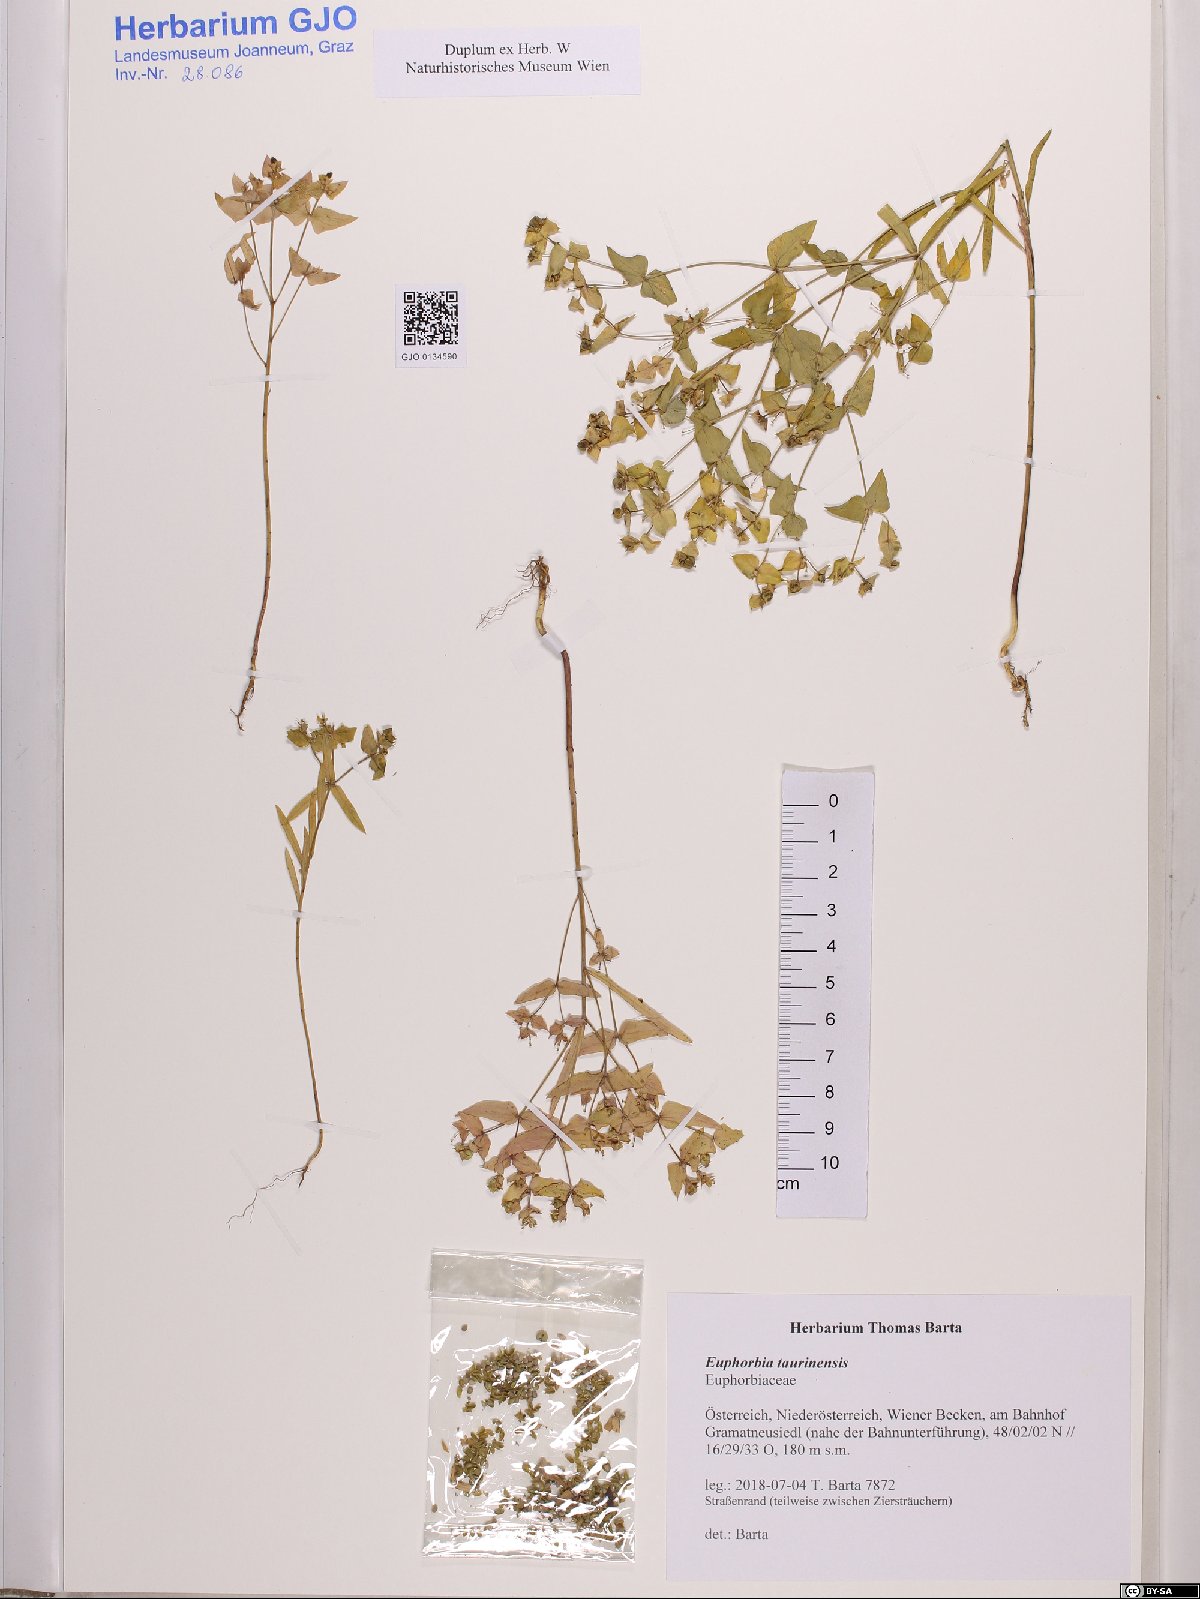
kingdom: Plantae
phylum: Tracheophyta
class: Magnoliopsida
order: Malpighiales
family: Euphorbiaceae
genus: Euphorbia
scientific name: Euphorbia taurinensis
